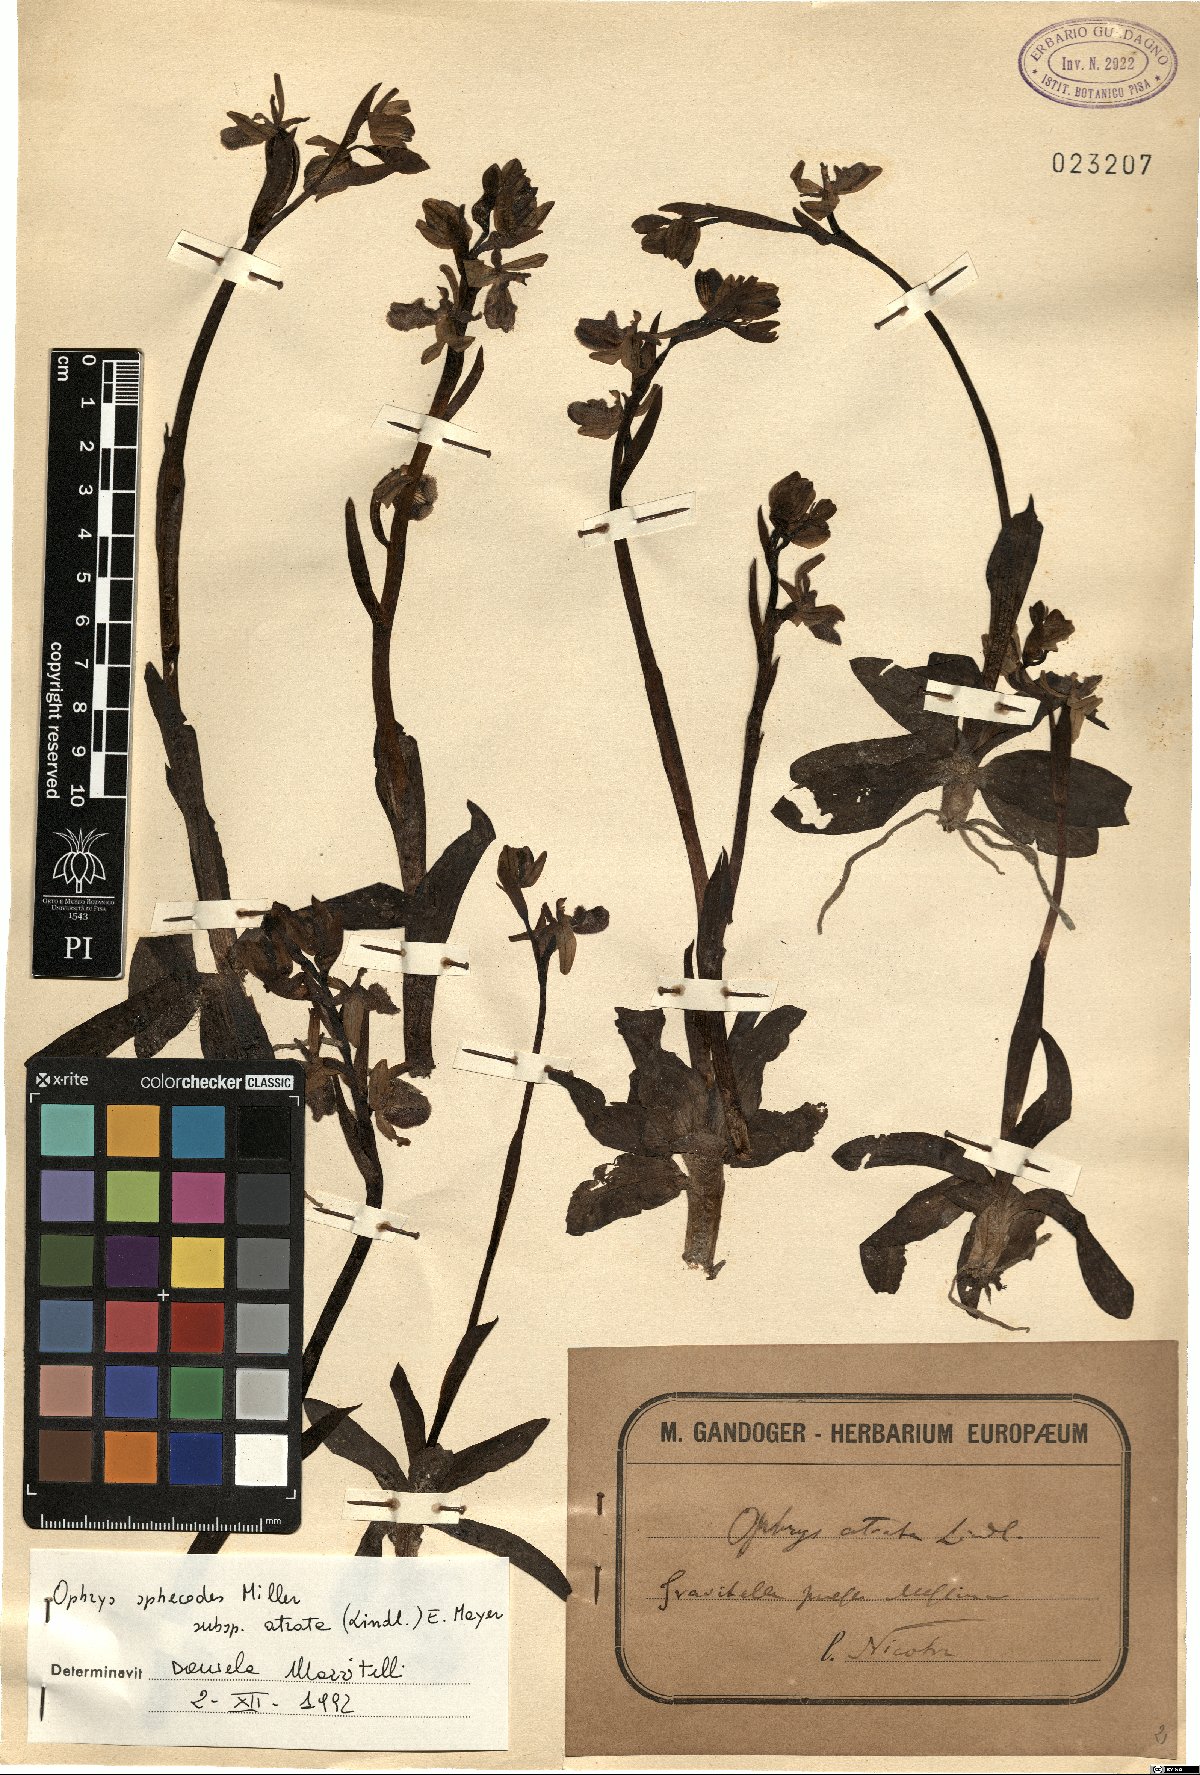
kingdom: Plantae
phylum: Tracheophyta
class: Liliopsida
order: Asparagales
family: Orchidaceae
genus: Ophrys
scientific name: Ophrys sphegodes
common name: Early spider-orchid
